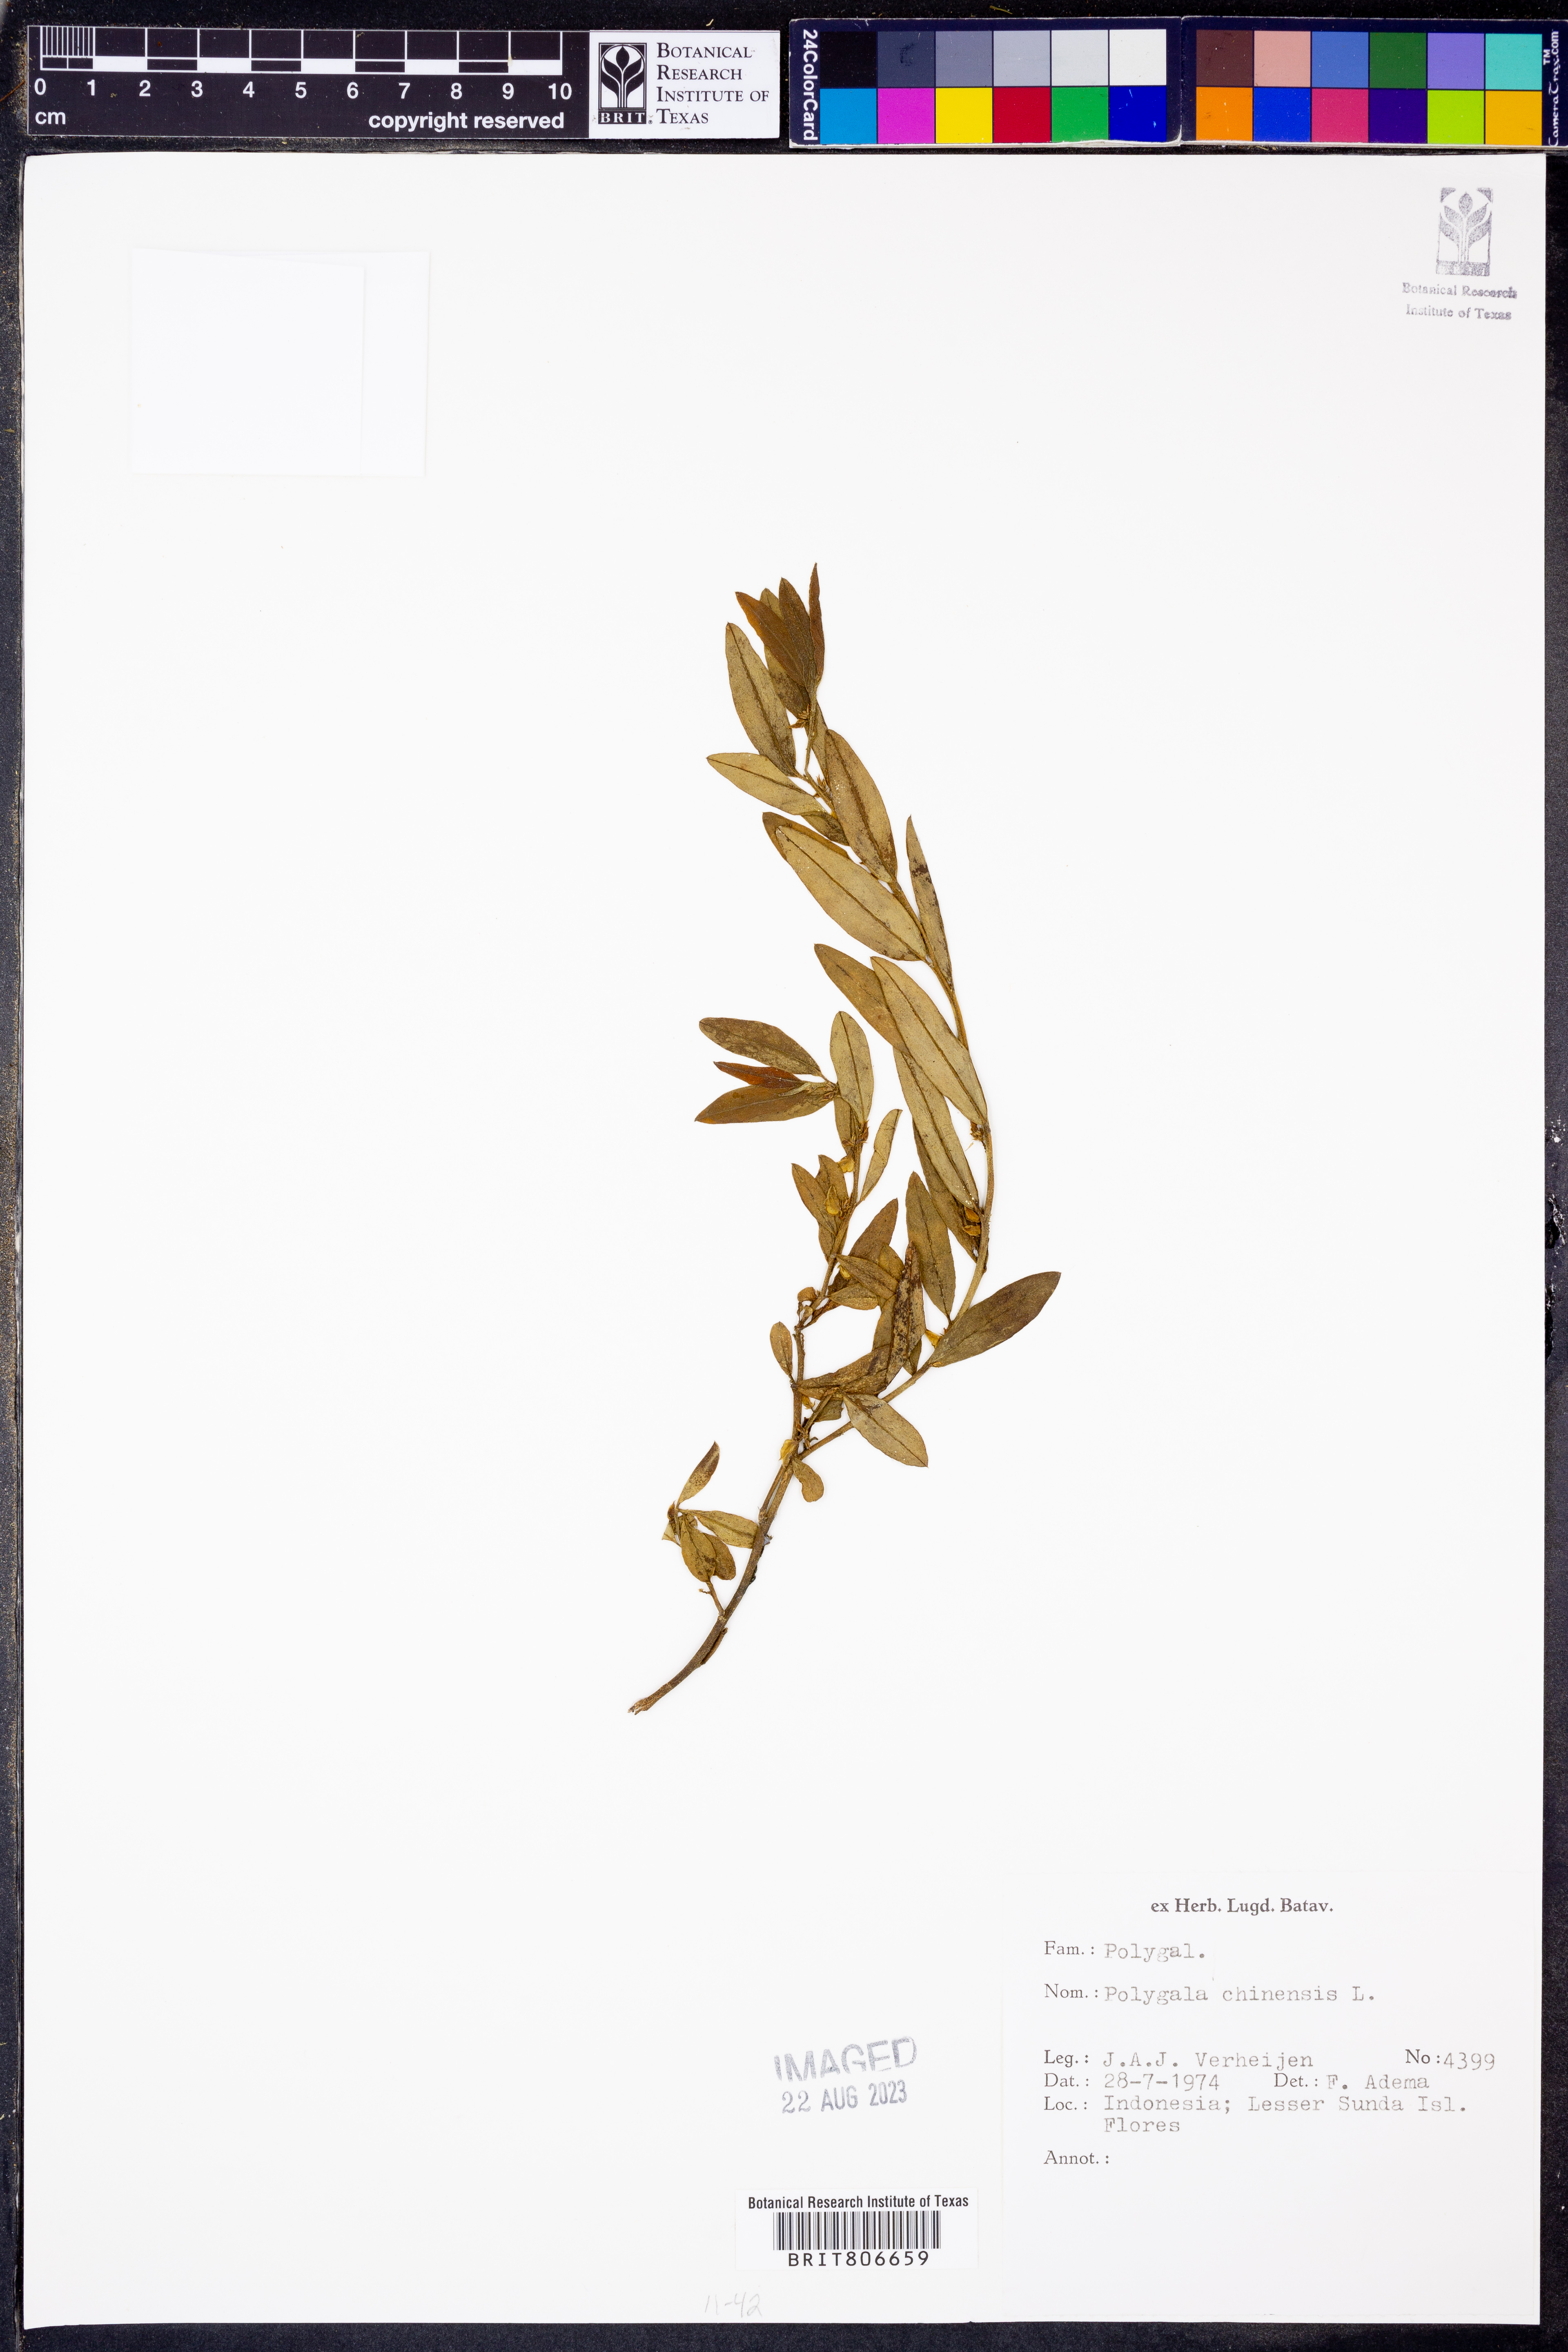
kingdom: Plantae
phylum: Tracheophyta
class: Magnoliopsida
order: Fabales
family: Polygalaceae
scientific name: Polygalaceae
